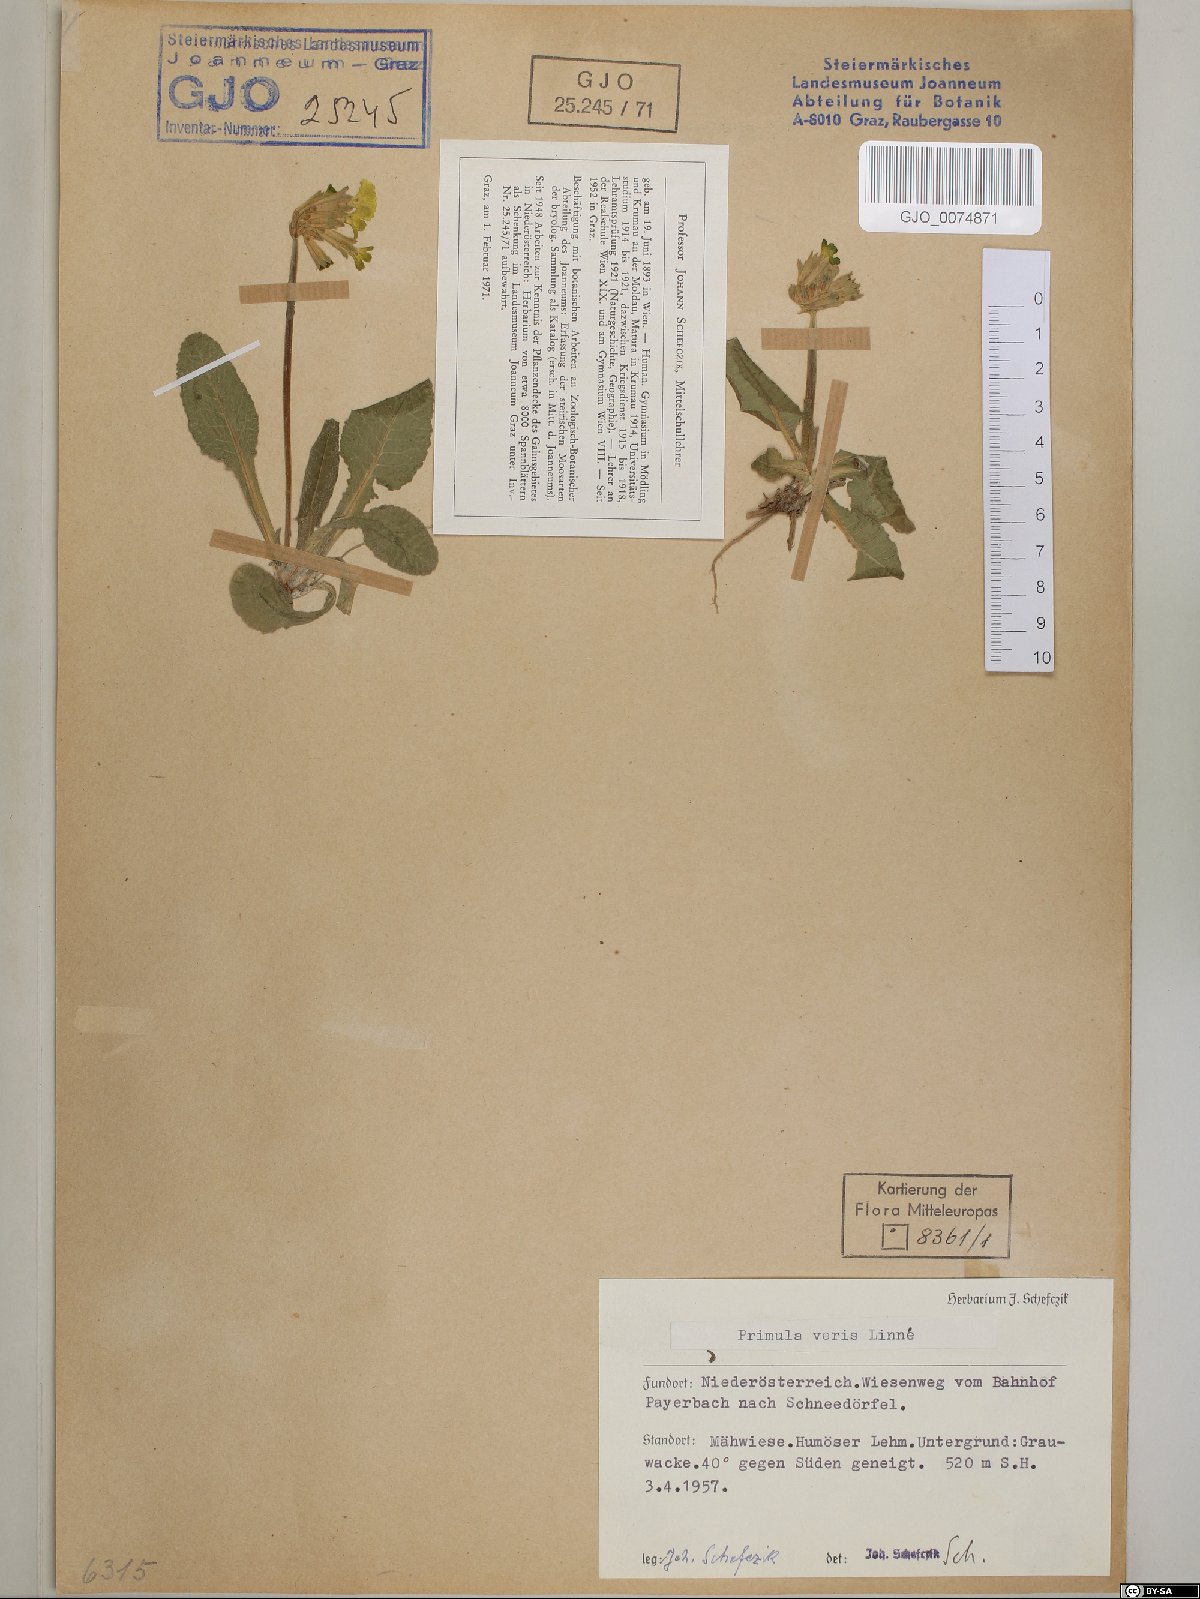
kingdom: Plantae
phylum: Tracheophyta
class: Magnoliopsida
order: Ericales
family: Primulaceae
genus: Primula
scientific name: Primula veris
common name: Cowslip
